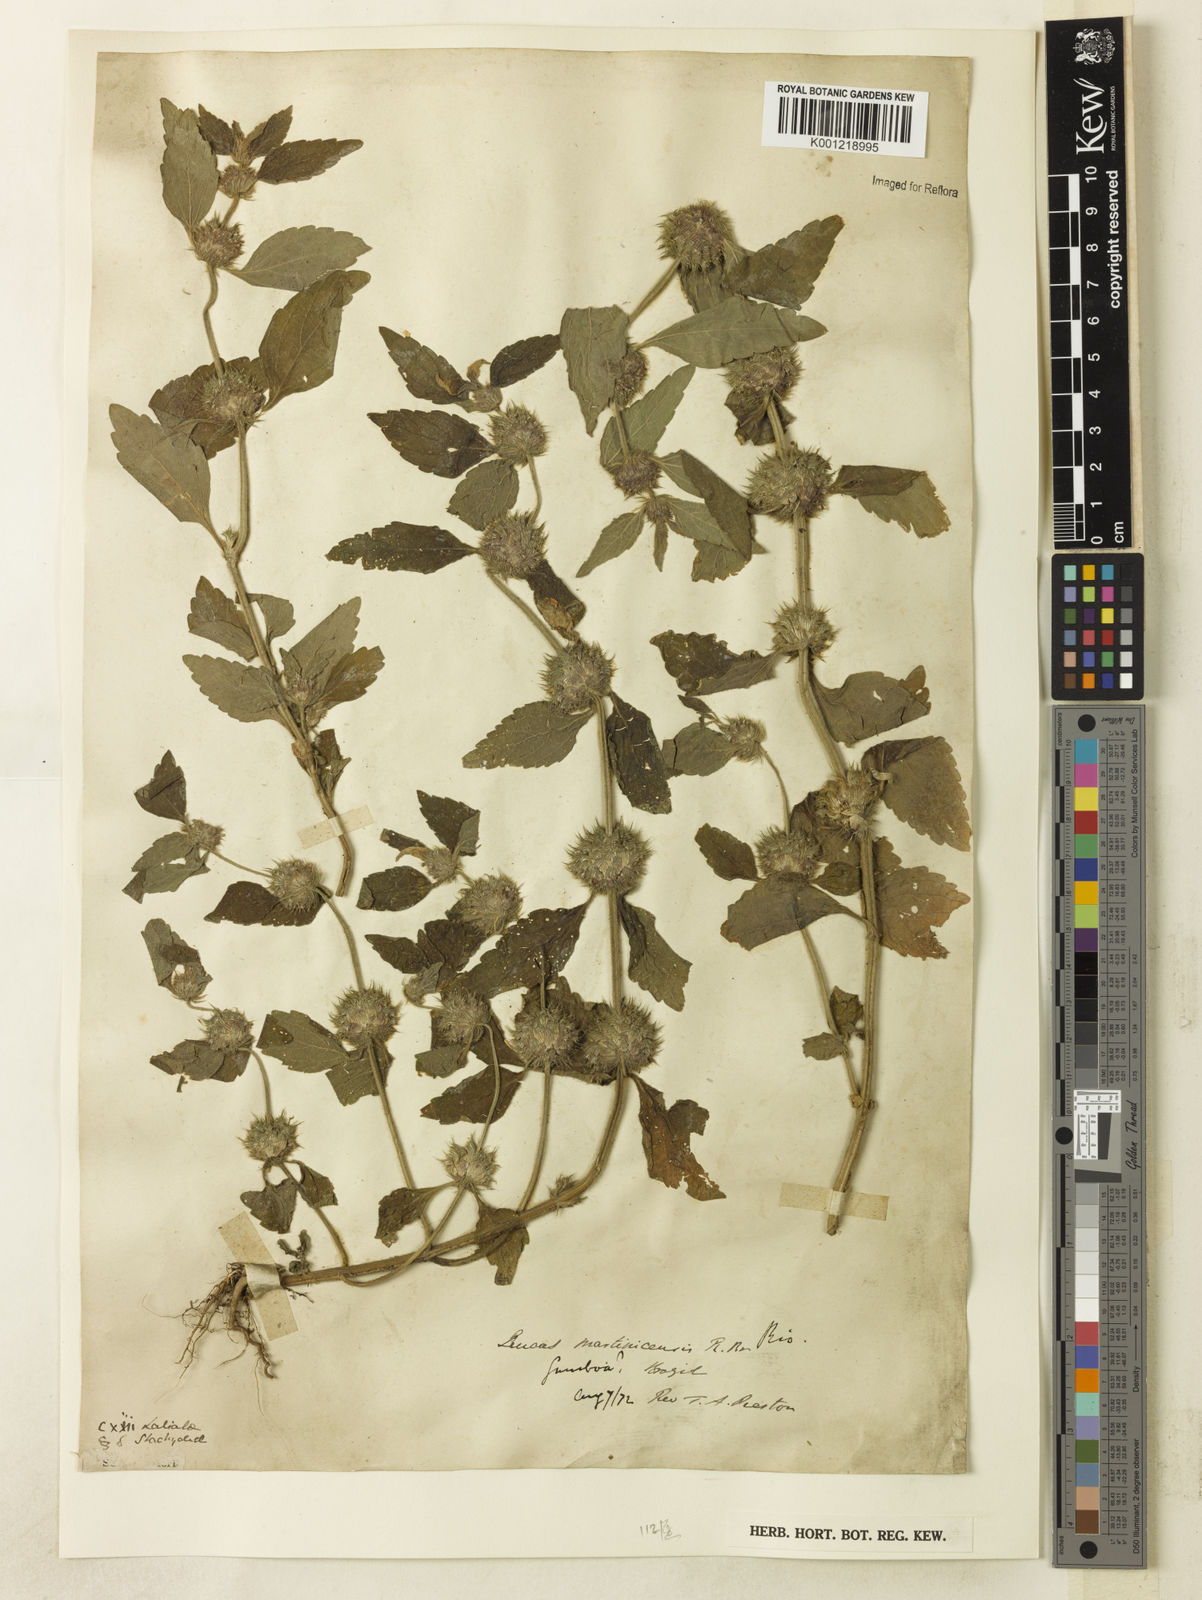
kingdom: Plantae
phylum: Tracheophyta
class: Magnoliopsida
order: Lamiales
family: Lamiaceae
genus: Leucas
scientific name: Leucas martinicensis
